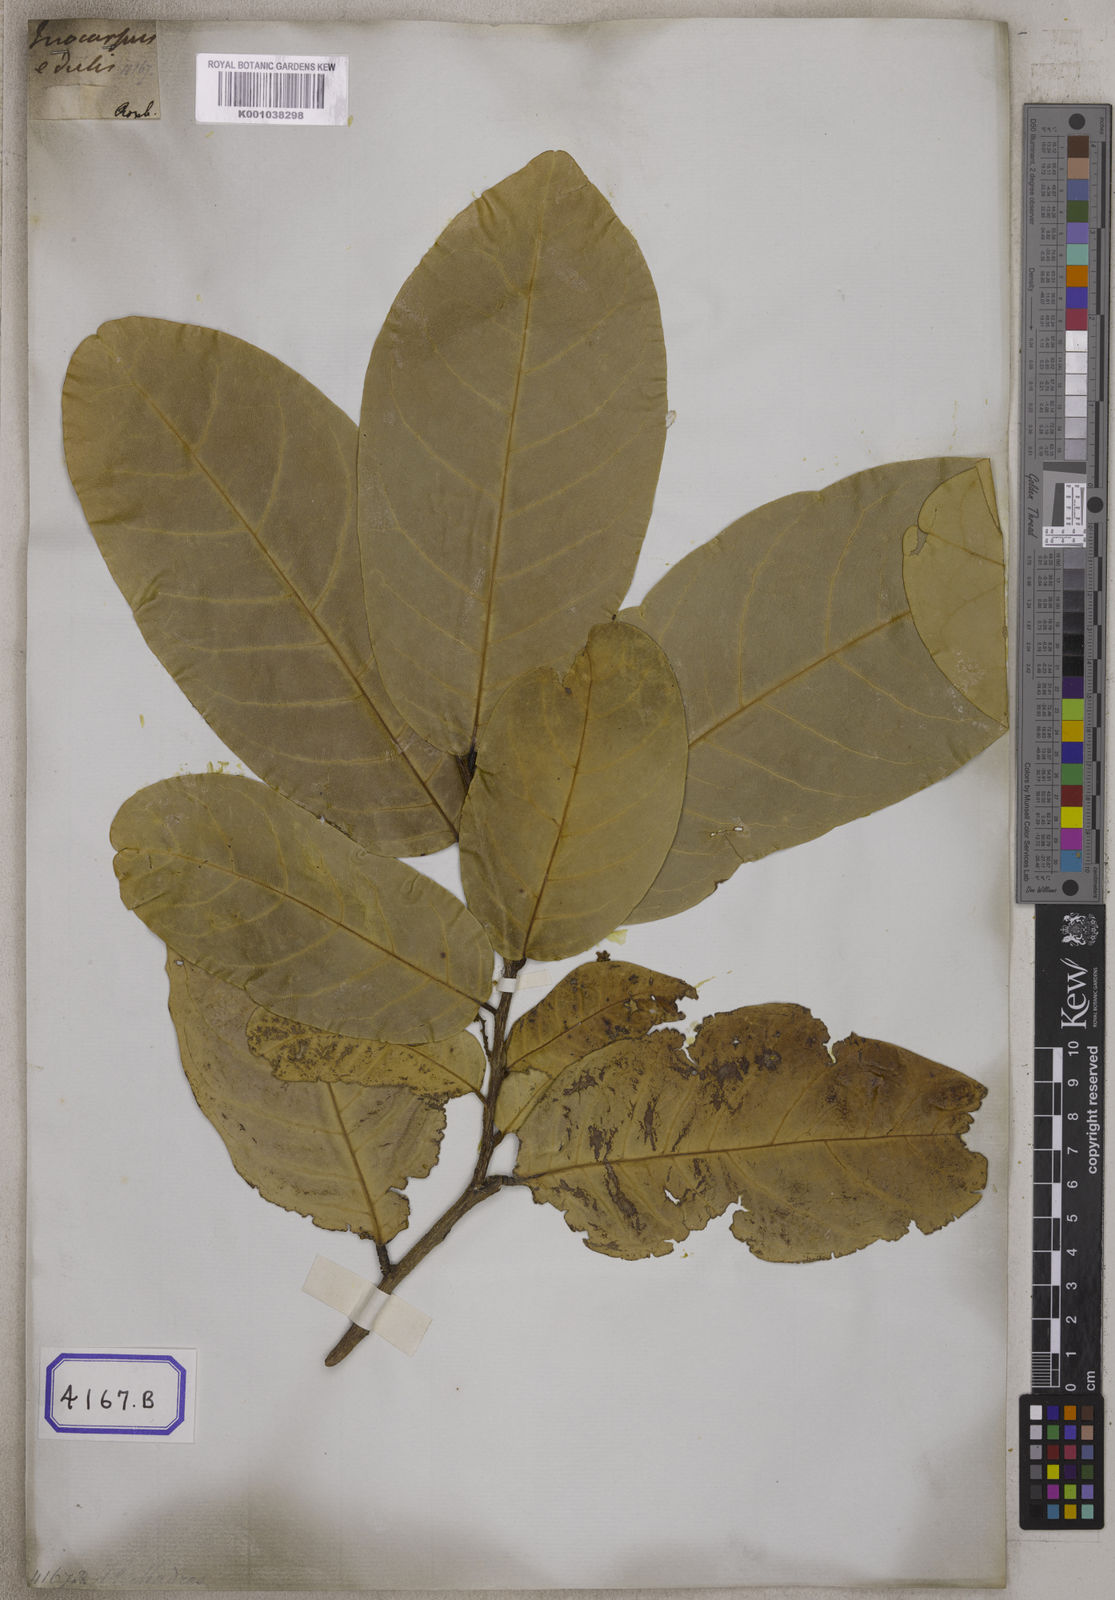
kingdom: Plantae
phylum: Tracheophyta
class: Magnoliopsida
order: Fabales
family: Fabaceae
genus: Inocarpus
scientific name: Inocarpus fagifer
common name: Polynesian chestnut
